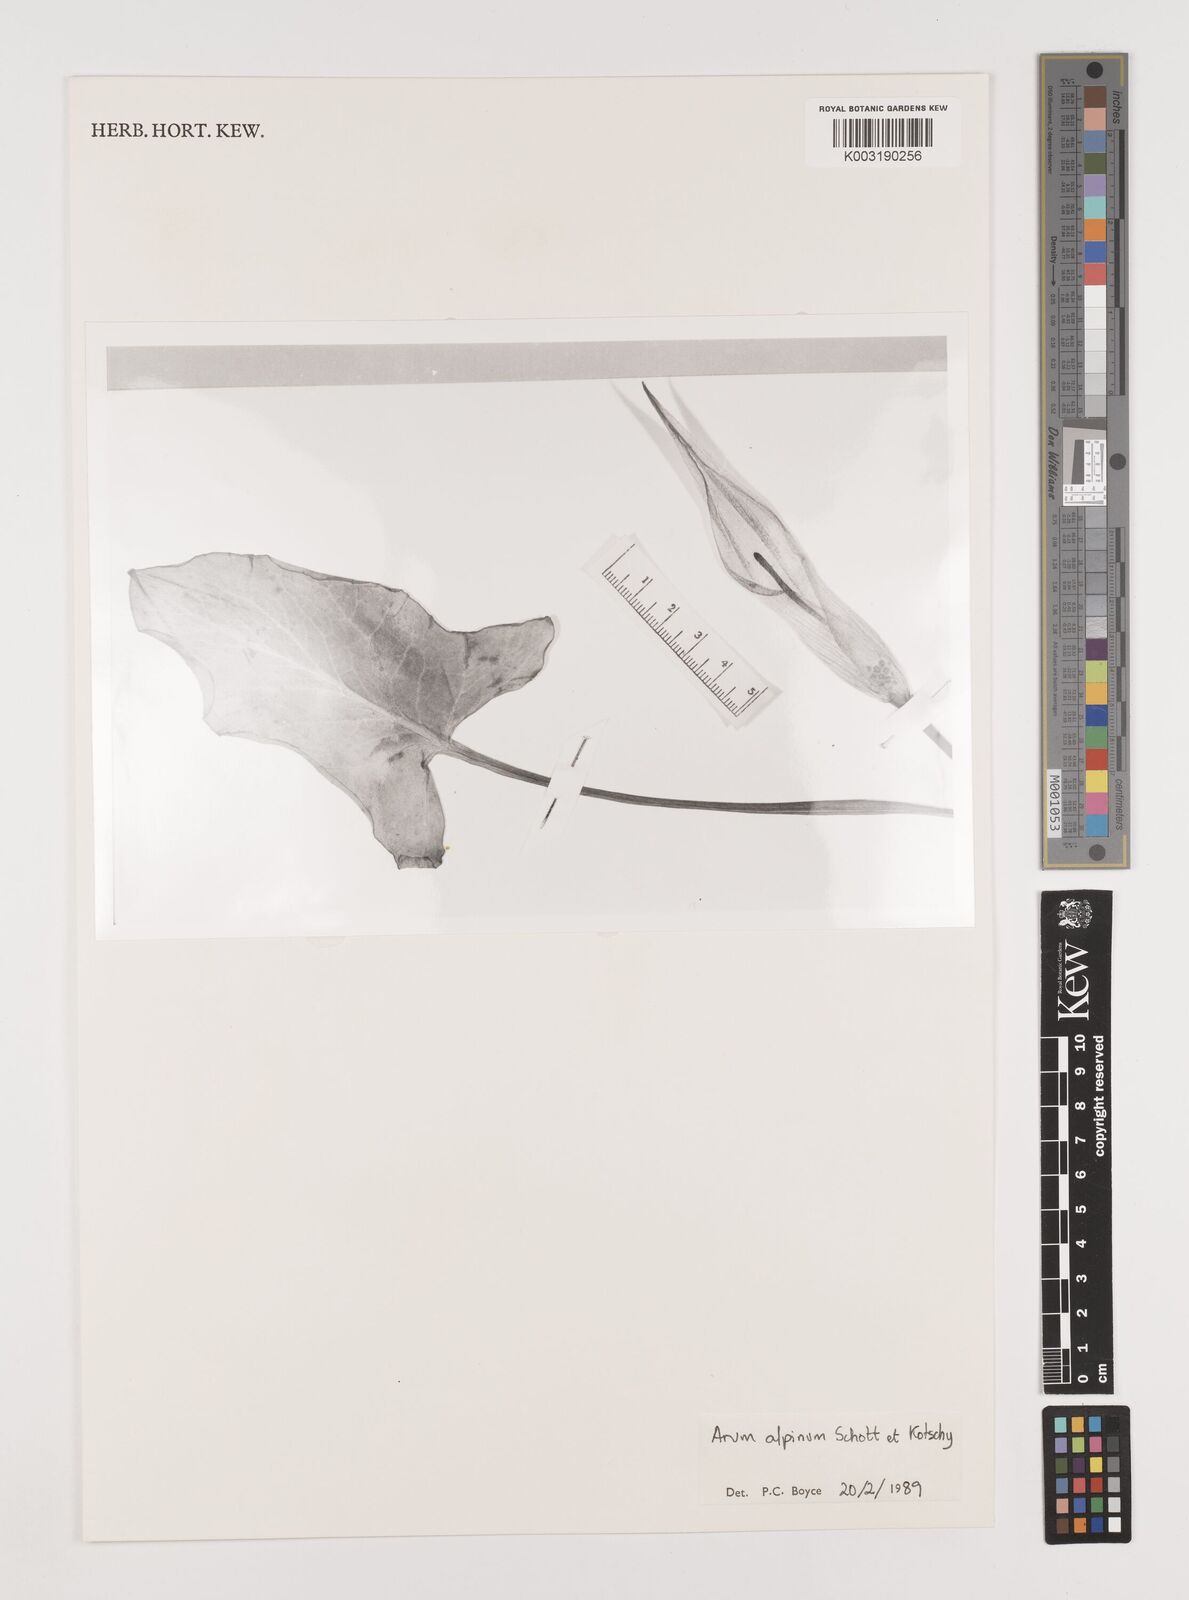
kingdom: Plantae
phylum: Tracheophyta
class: Liliopsida
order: Alismatales
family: Araceae
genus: Arum
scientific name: Arum cylindraceum
